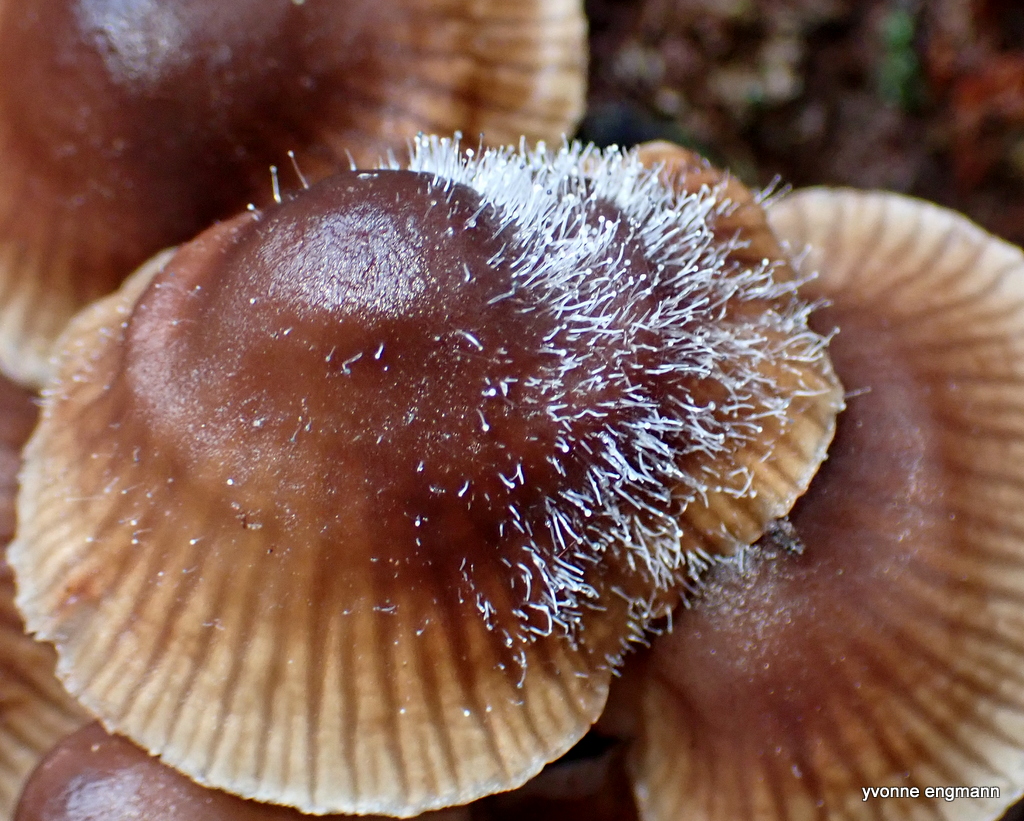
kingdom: Fungi
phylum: Mucoromycota
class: Mucoromycetes
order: Mucorales
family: Phycomycetaceae
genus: Spinellus
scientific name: Spinellus fusiger
